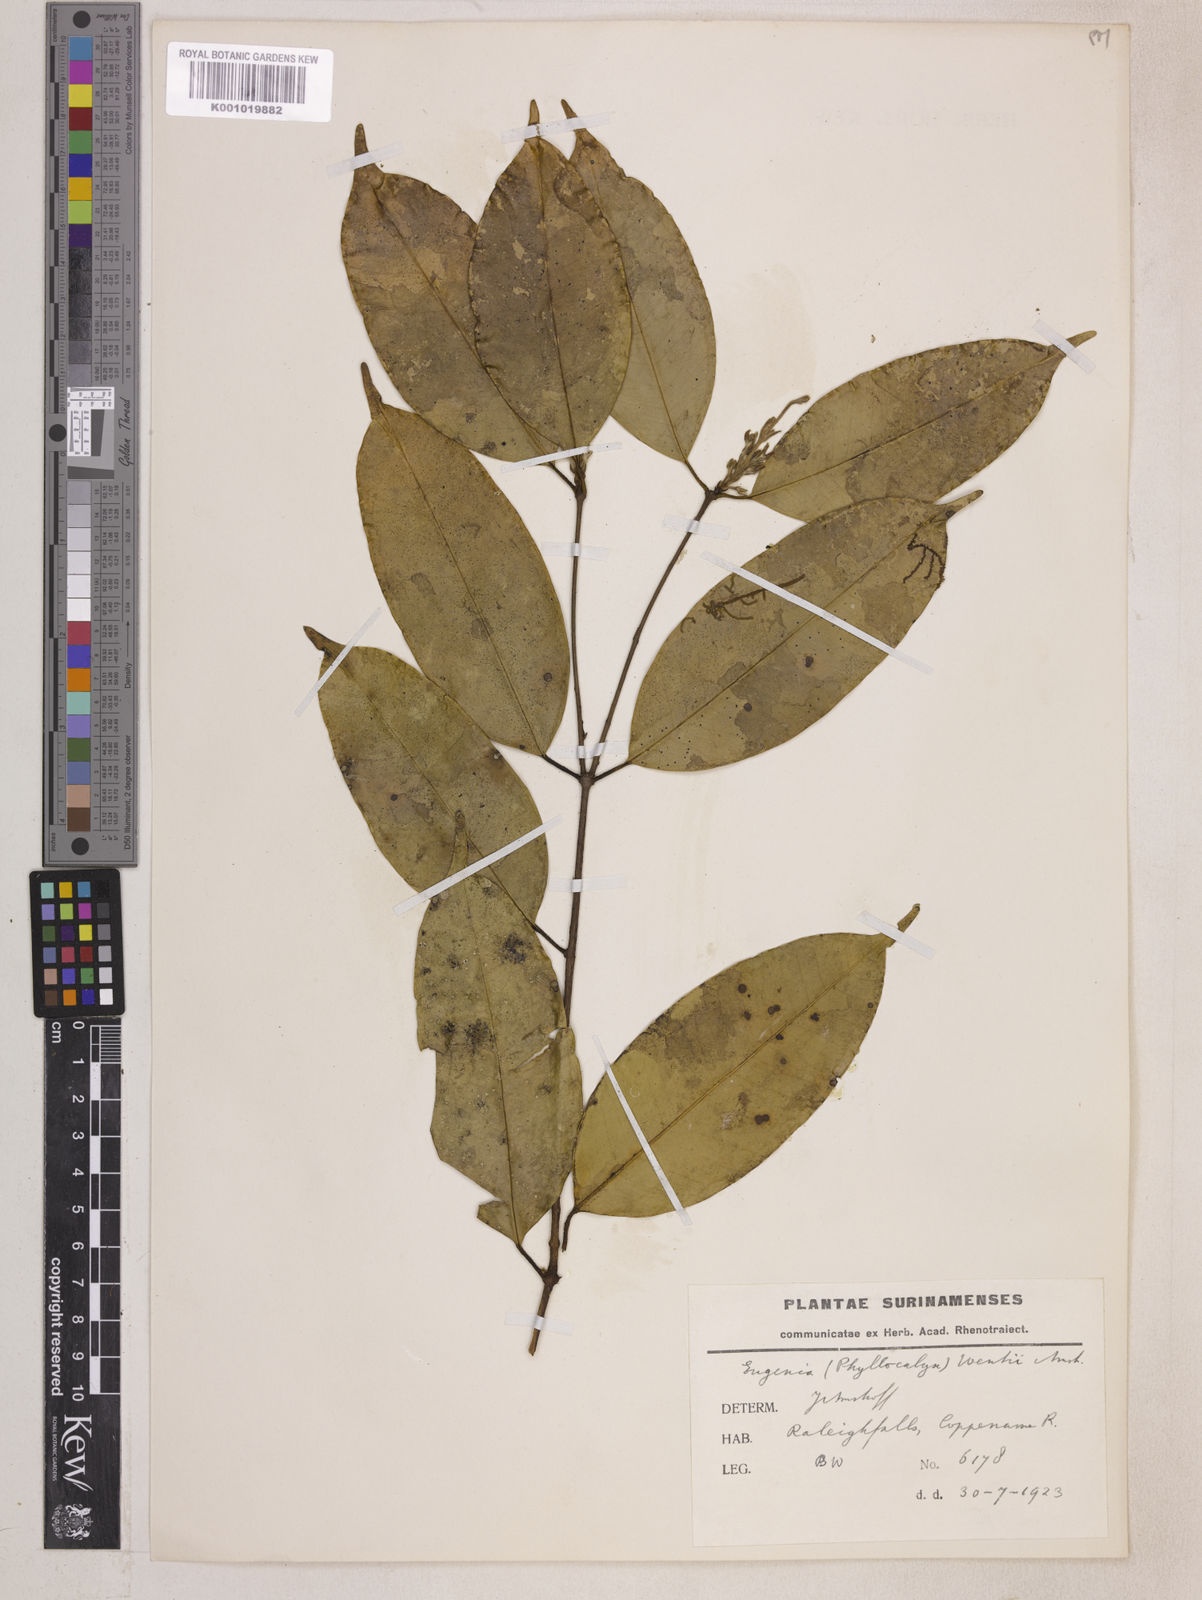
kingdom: Plantae
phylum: Tracheophyta
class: Magnoliopsida
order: Myrtales
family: Myrtaceae
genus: Eugenia
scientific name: Eugenia wentii
